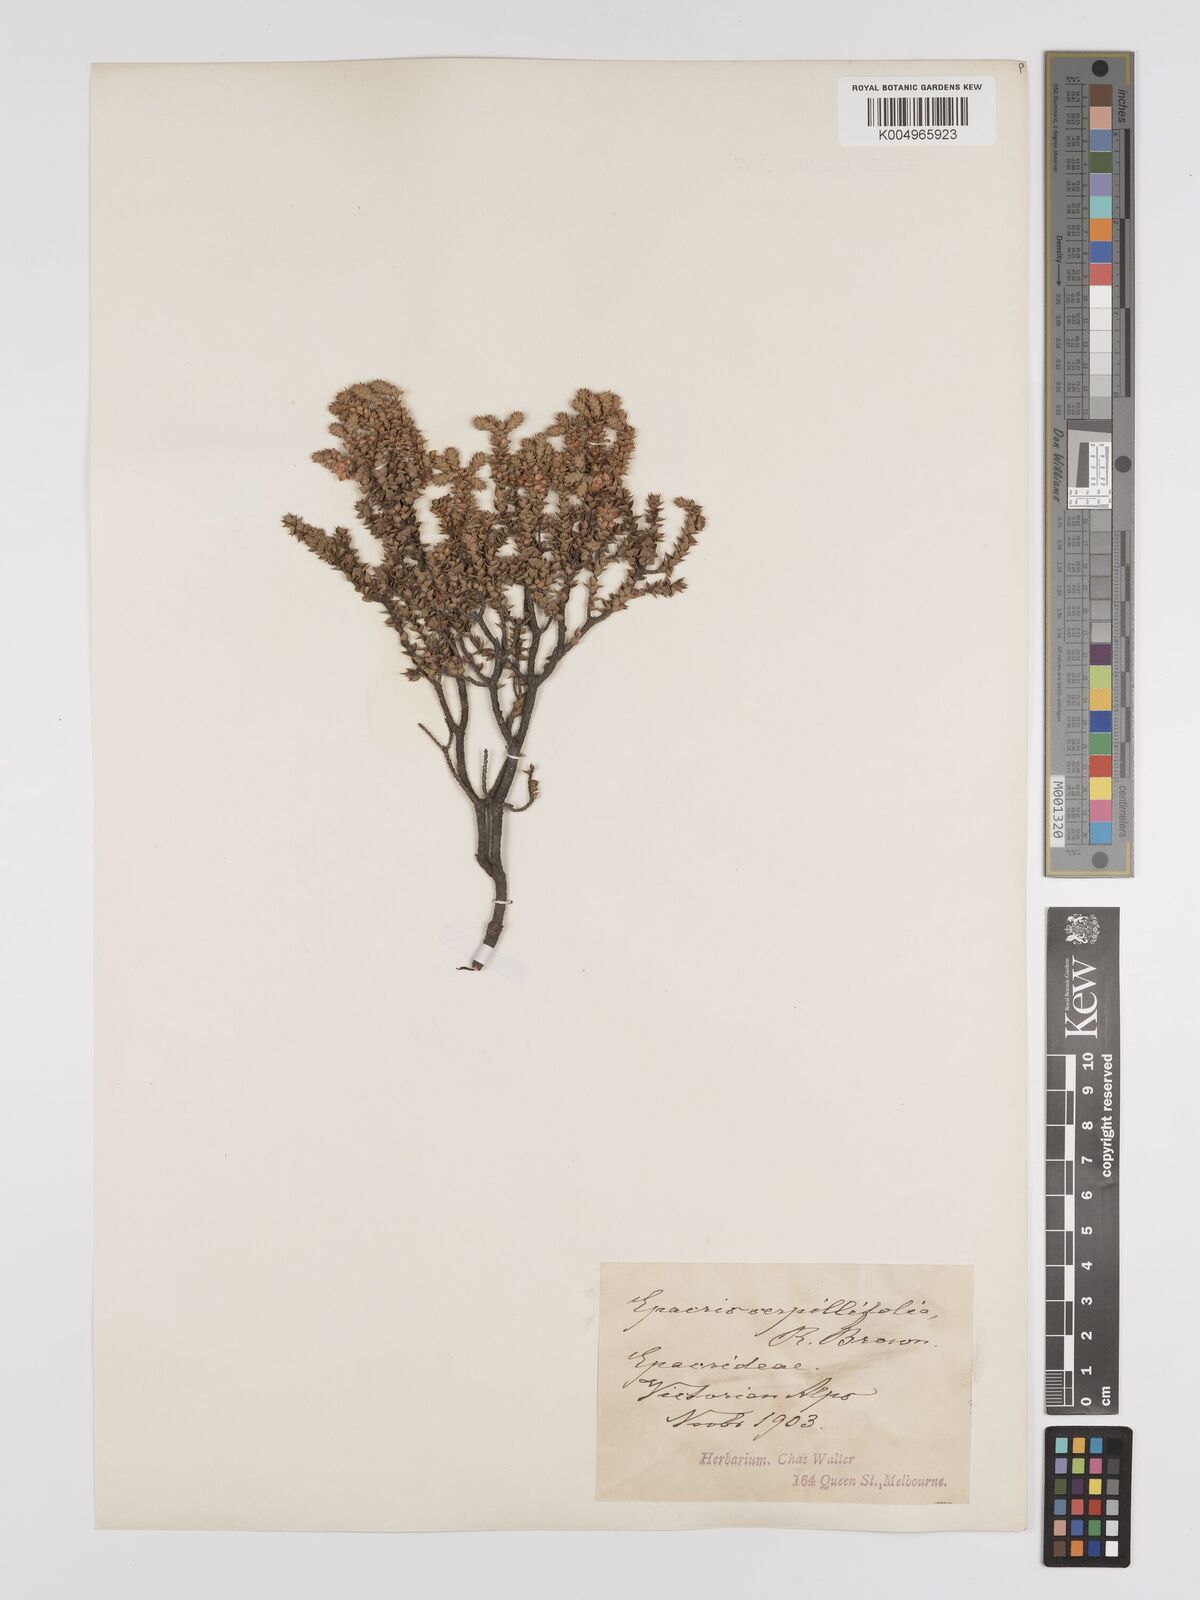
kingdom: Plantae
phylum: Tracheophyta
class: Magnoliopsida
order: Ericales
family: Ericaceae
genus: Epacris
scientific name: Epacris
